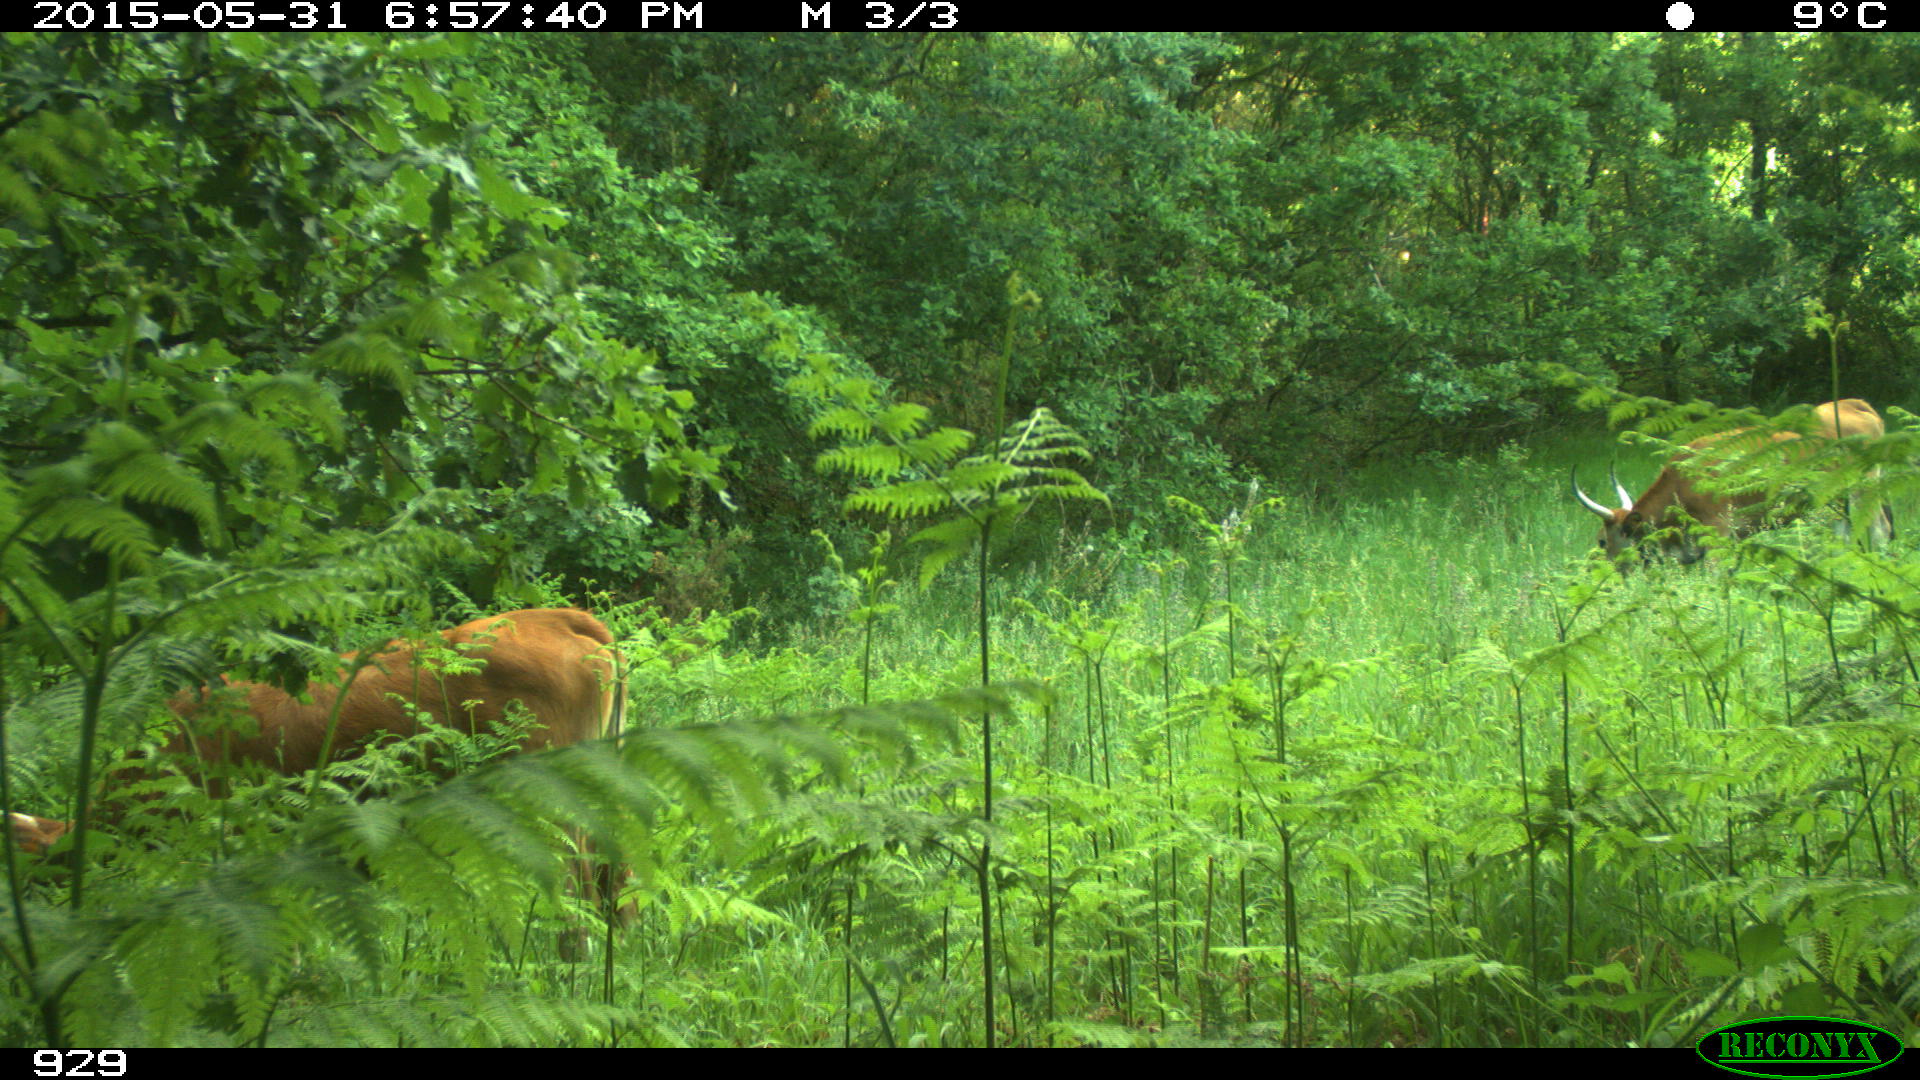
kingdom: Animalia
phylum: Chordata
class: Mammalia
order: Artiodactyla
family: Bovidae
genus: Bos
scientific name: Bos taurus
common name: Domesticated cattle
